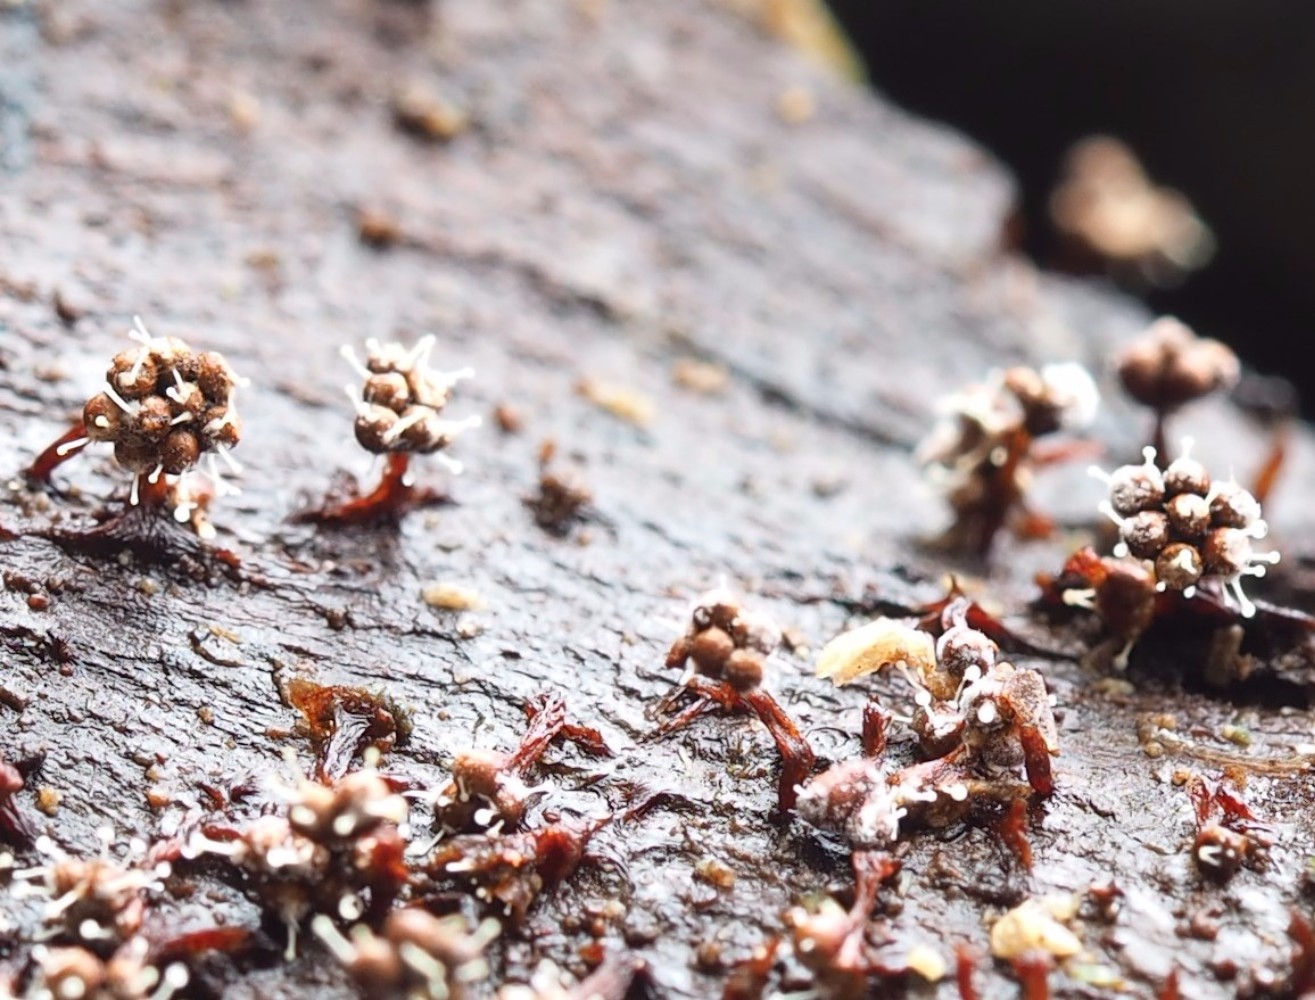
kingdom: Fungi
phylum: Ascomycota
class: Sordariomycetes
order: Hypocreales
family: Ophiocordycipitaceae
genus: Polycephalomyces
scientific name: Polycephalomyces tomentosus
